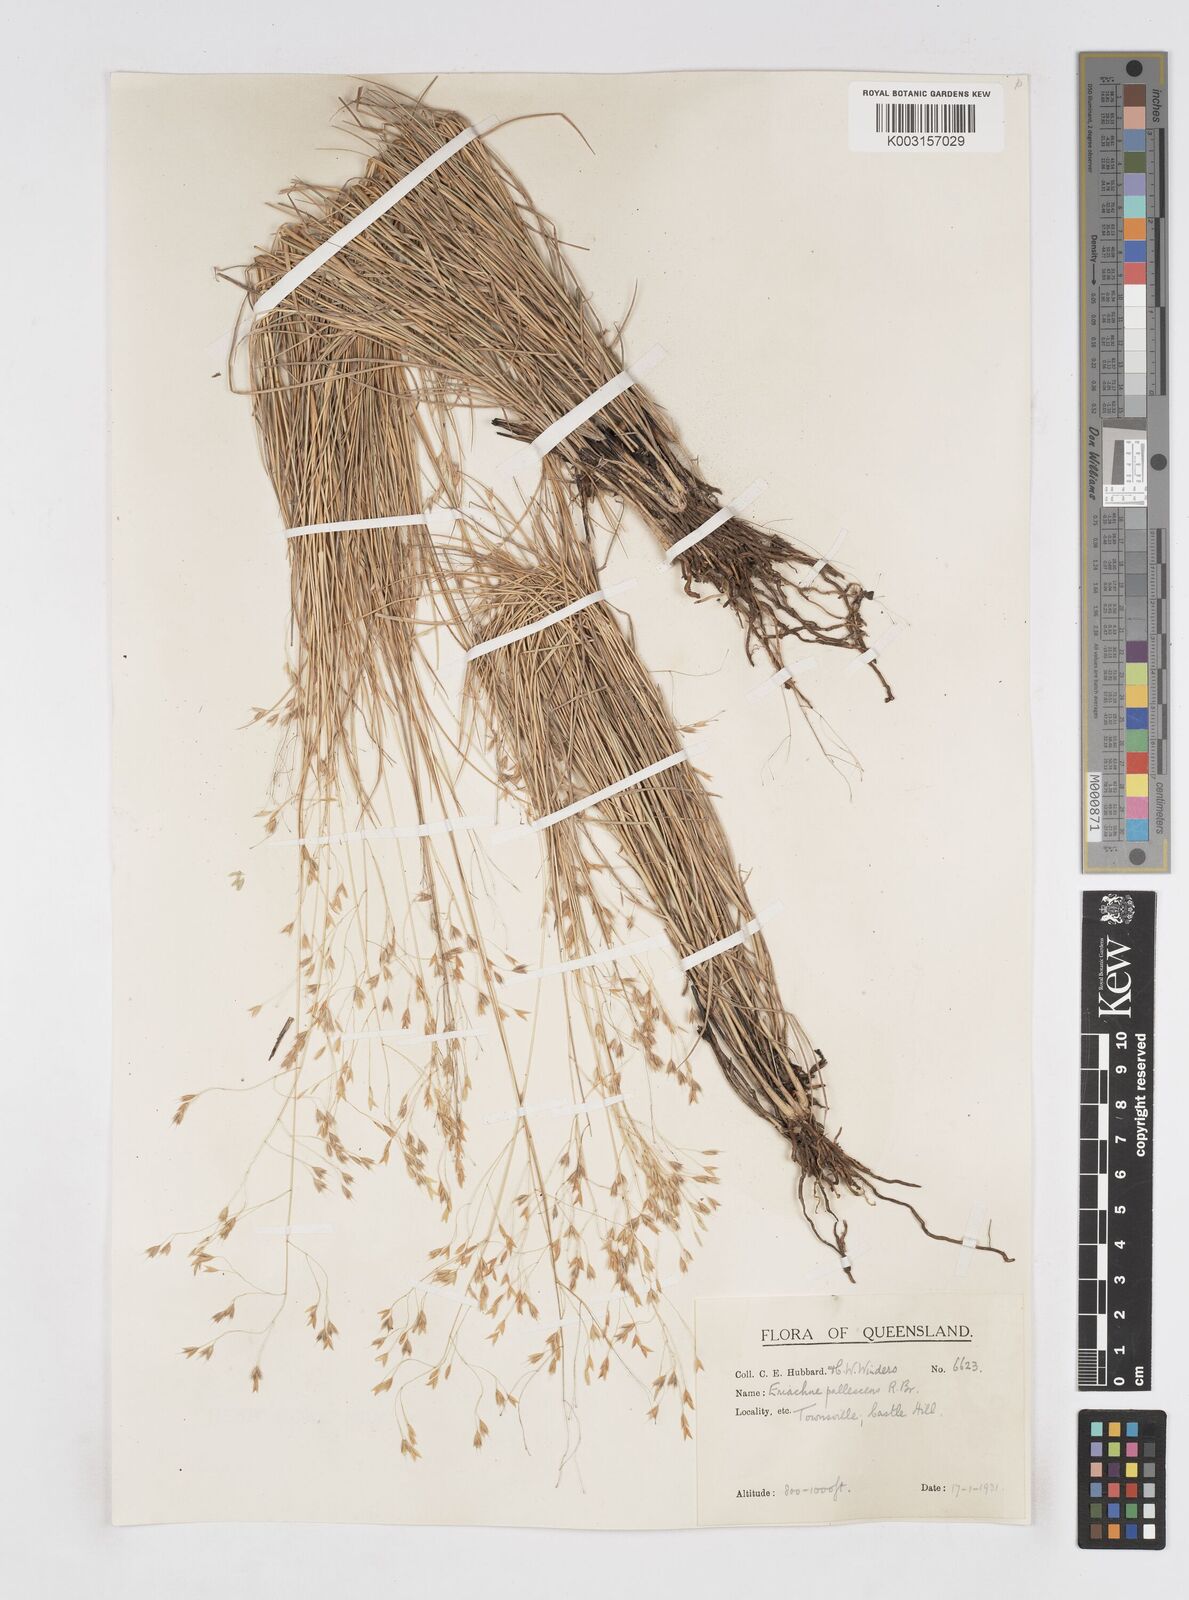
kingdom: Plantae
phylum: Tracheophyta
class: Liliopsida
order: Poales
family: Poaceae
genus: Eriachne
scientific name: Eriachne pallescens
